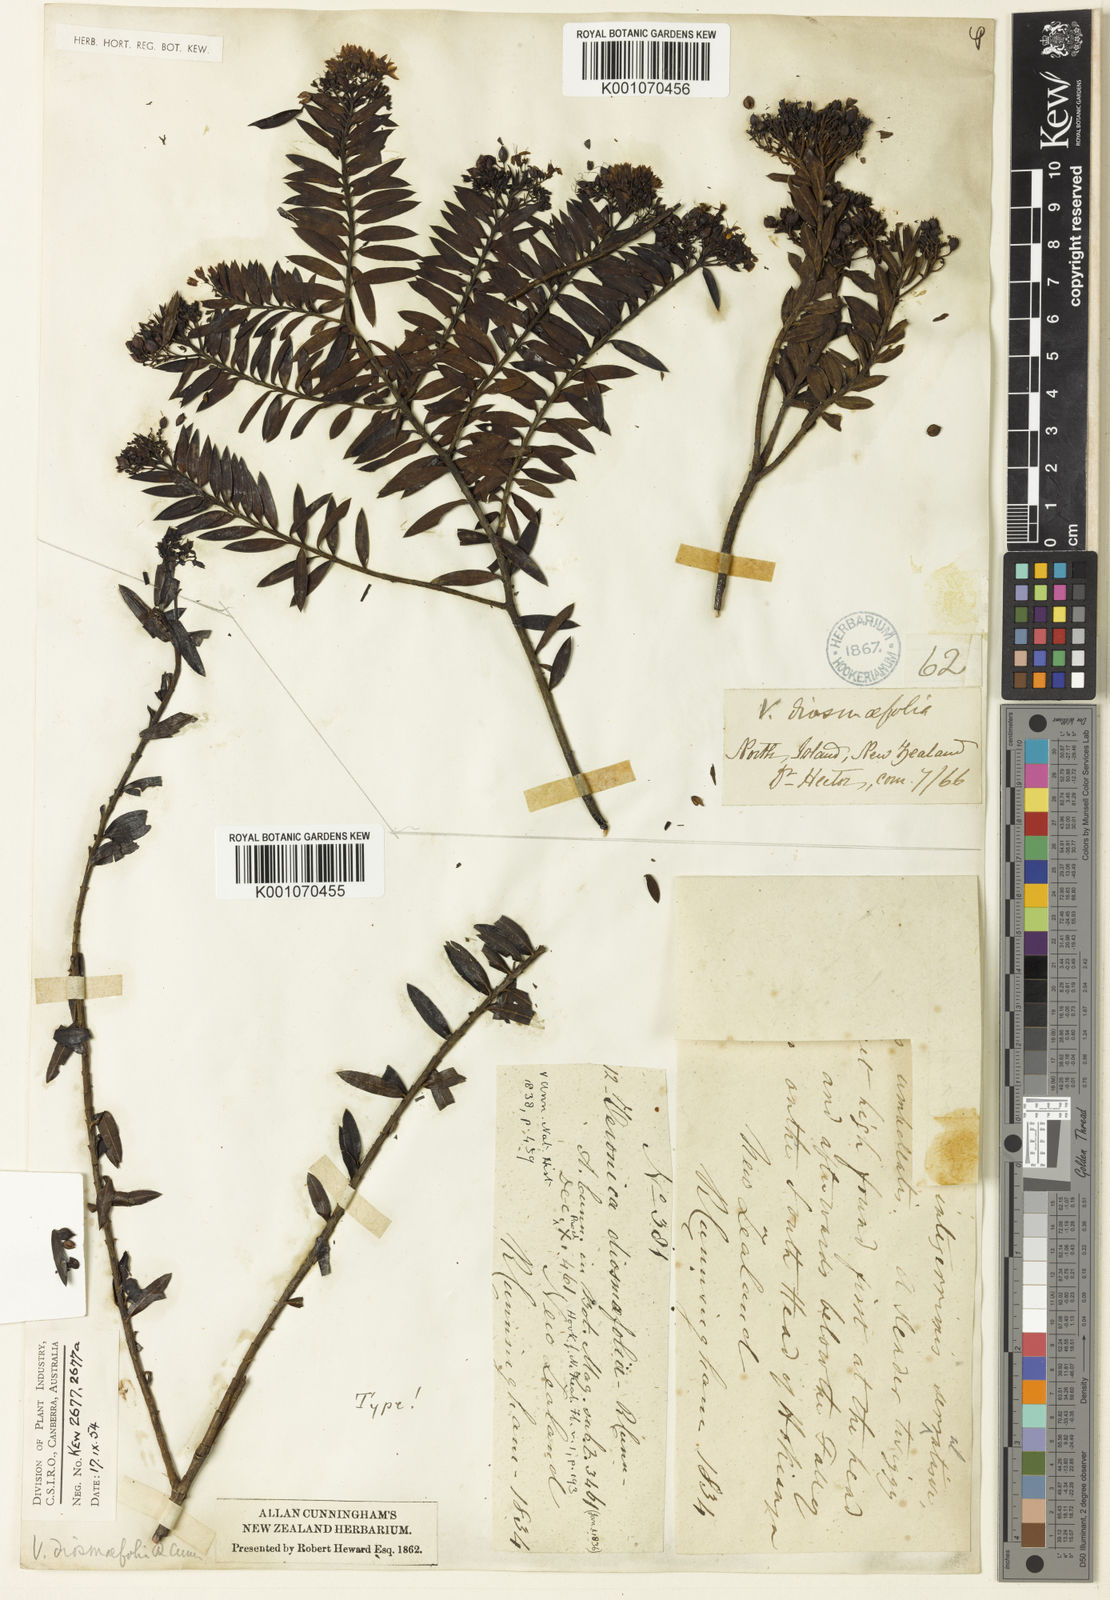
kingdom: Plantae
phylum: Tracheophyta
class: Magnoliopsida
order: Lamiales
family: Plantaginaceae
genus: Veronica
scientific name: Veronica
